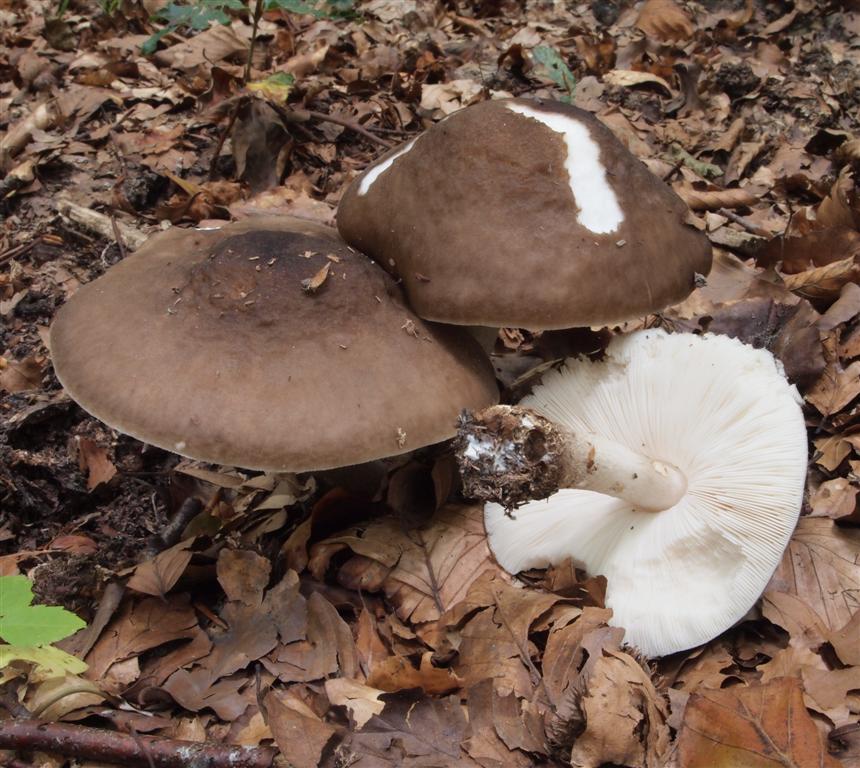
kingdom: Fungi
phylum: Basidiomycota
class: Agaricomycetes
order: Agaricales
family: Pluteaceae
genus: Pluteus
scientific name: Pluteus cervinus
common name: sodfarvet skærmhat
